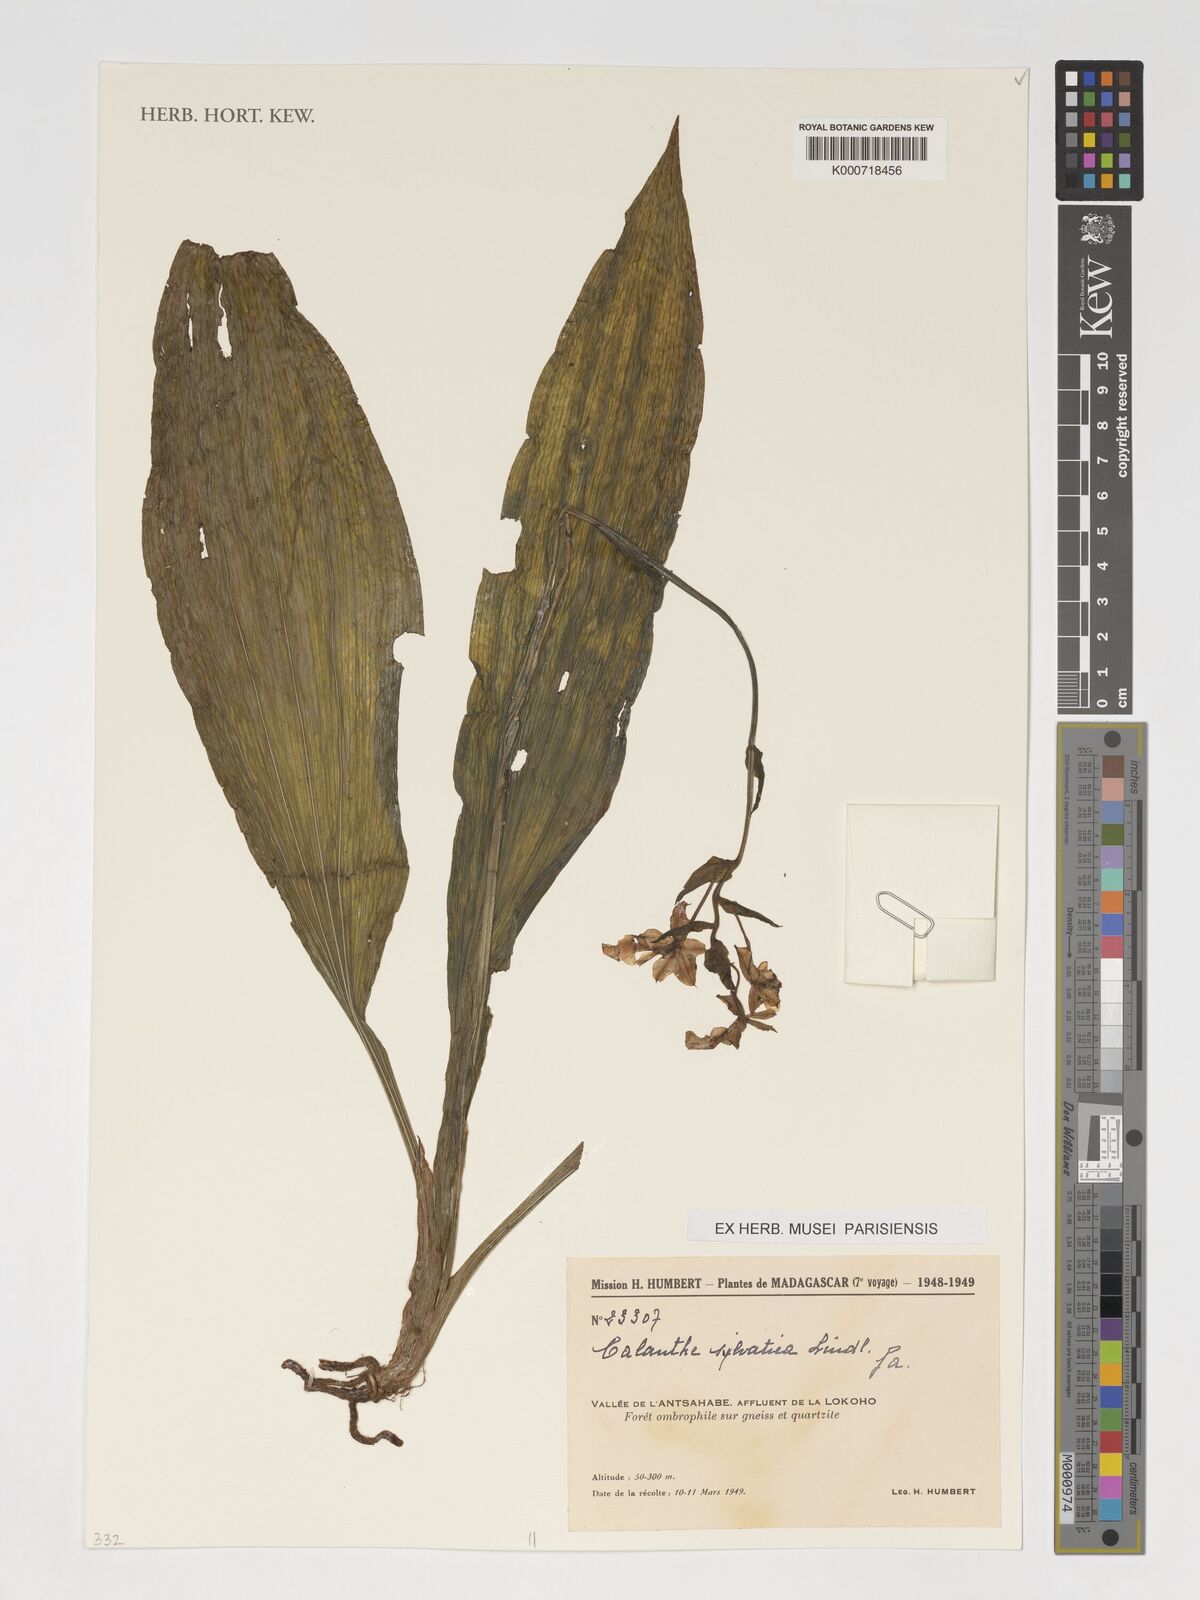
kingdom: Plantae
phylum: Tracheophyta
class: Liliopsida
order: Asparagales
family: Orchidaceae
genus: Calanthe
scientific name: Calanthe sylvatica
